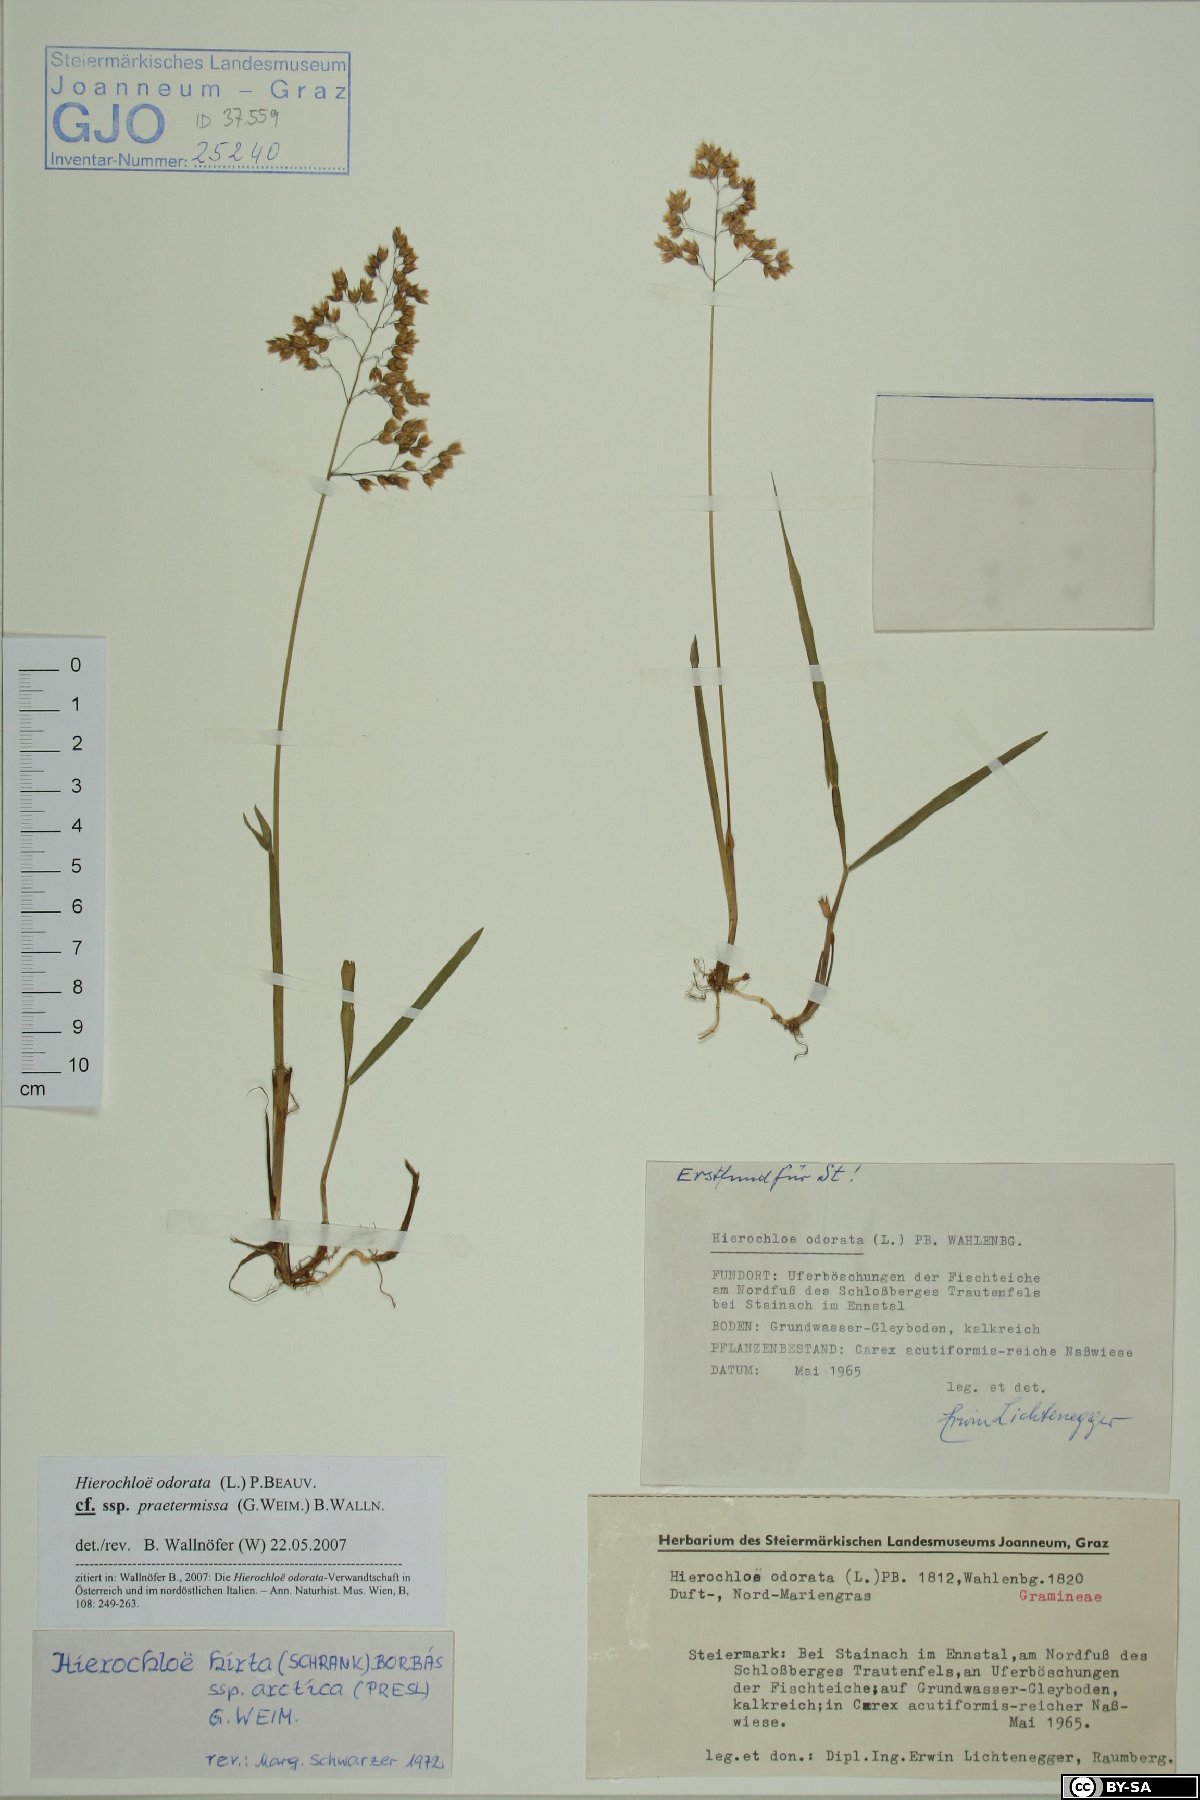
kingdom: Plantae
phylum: Tracheophyta
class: Liliopsida
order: Poales
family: Poaceae
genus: Anthoxanthum
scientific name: Anthoxanthum nitens
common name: Holy grass
